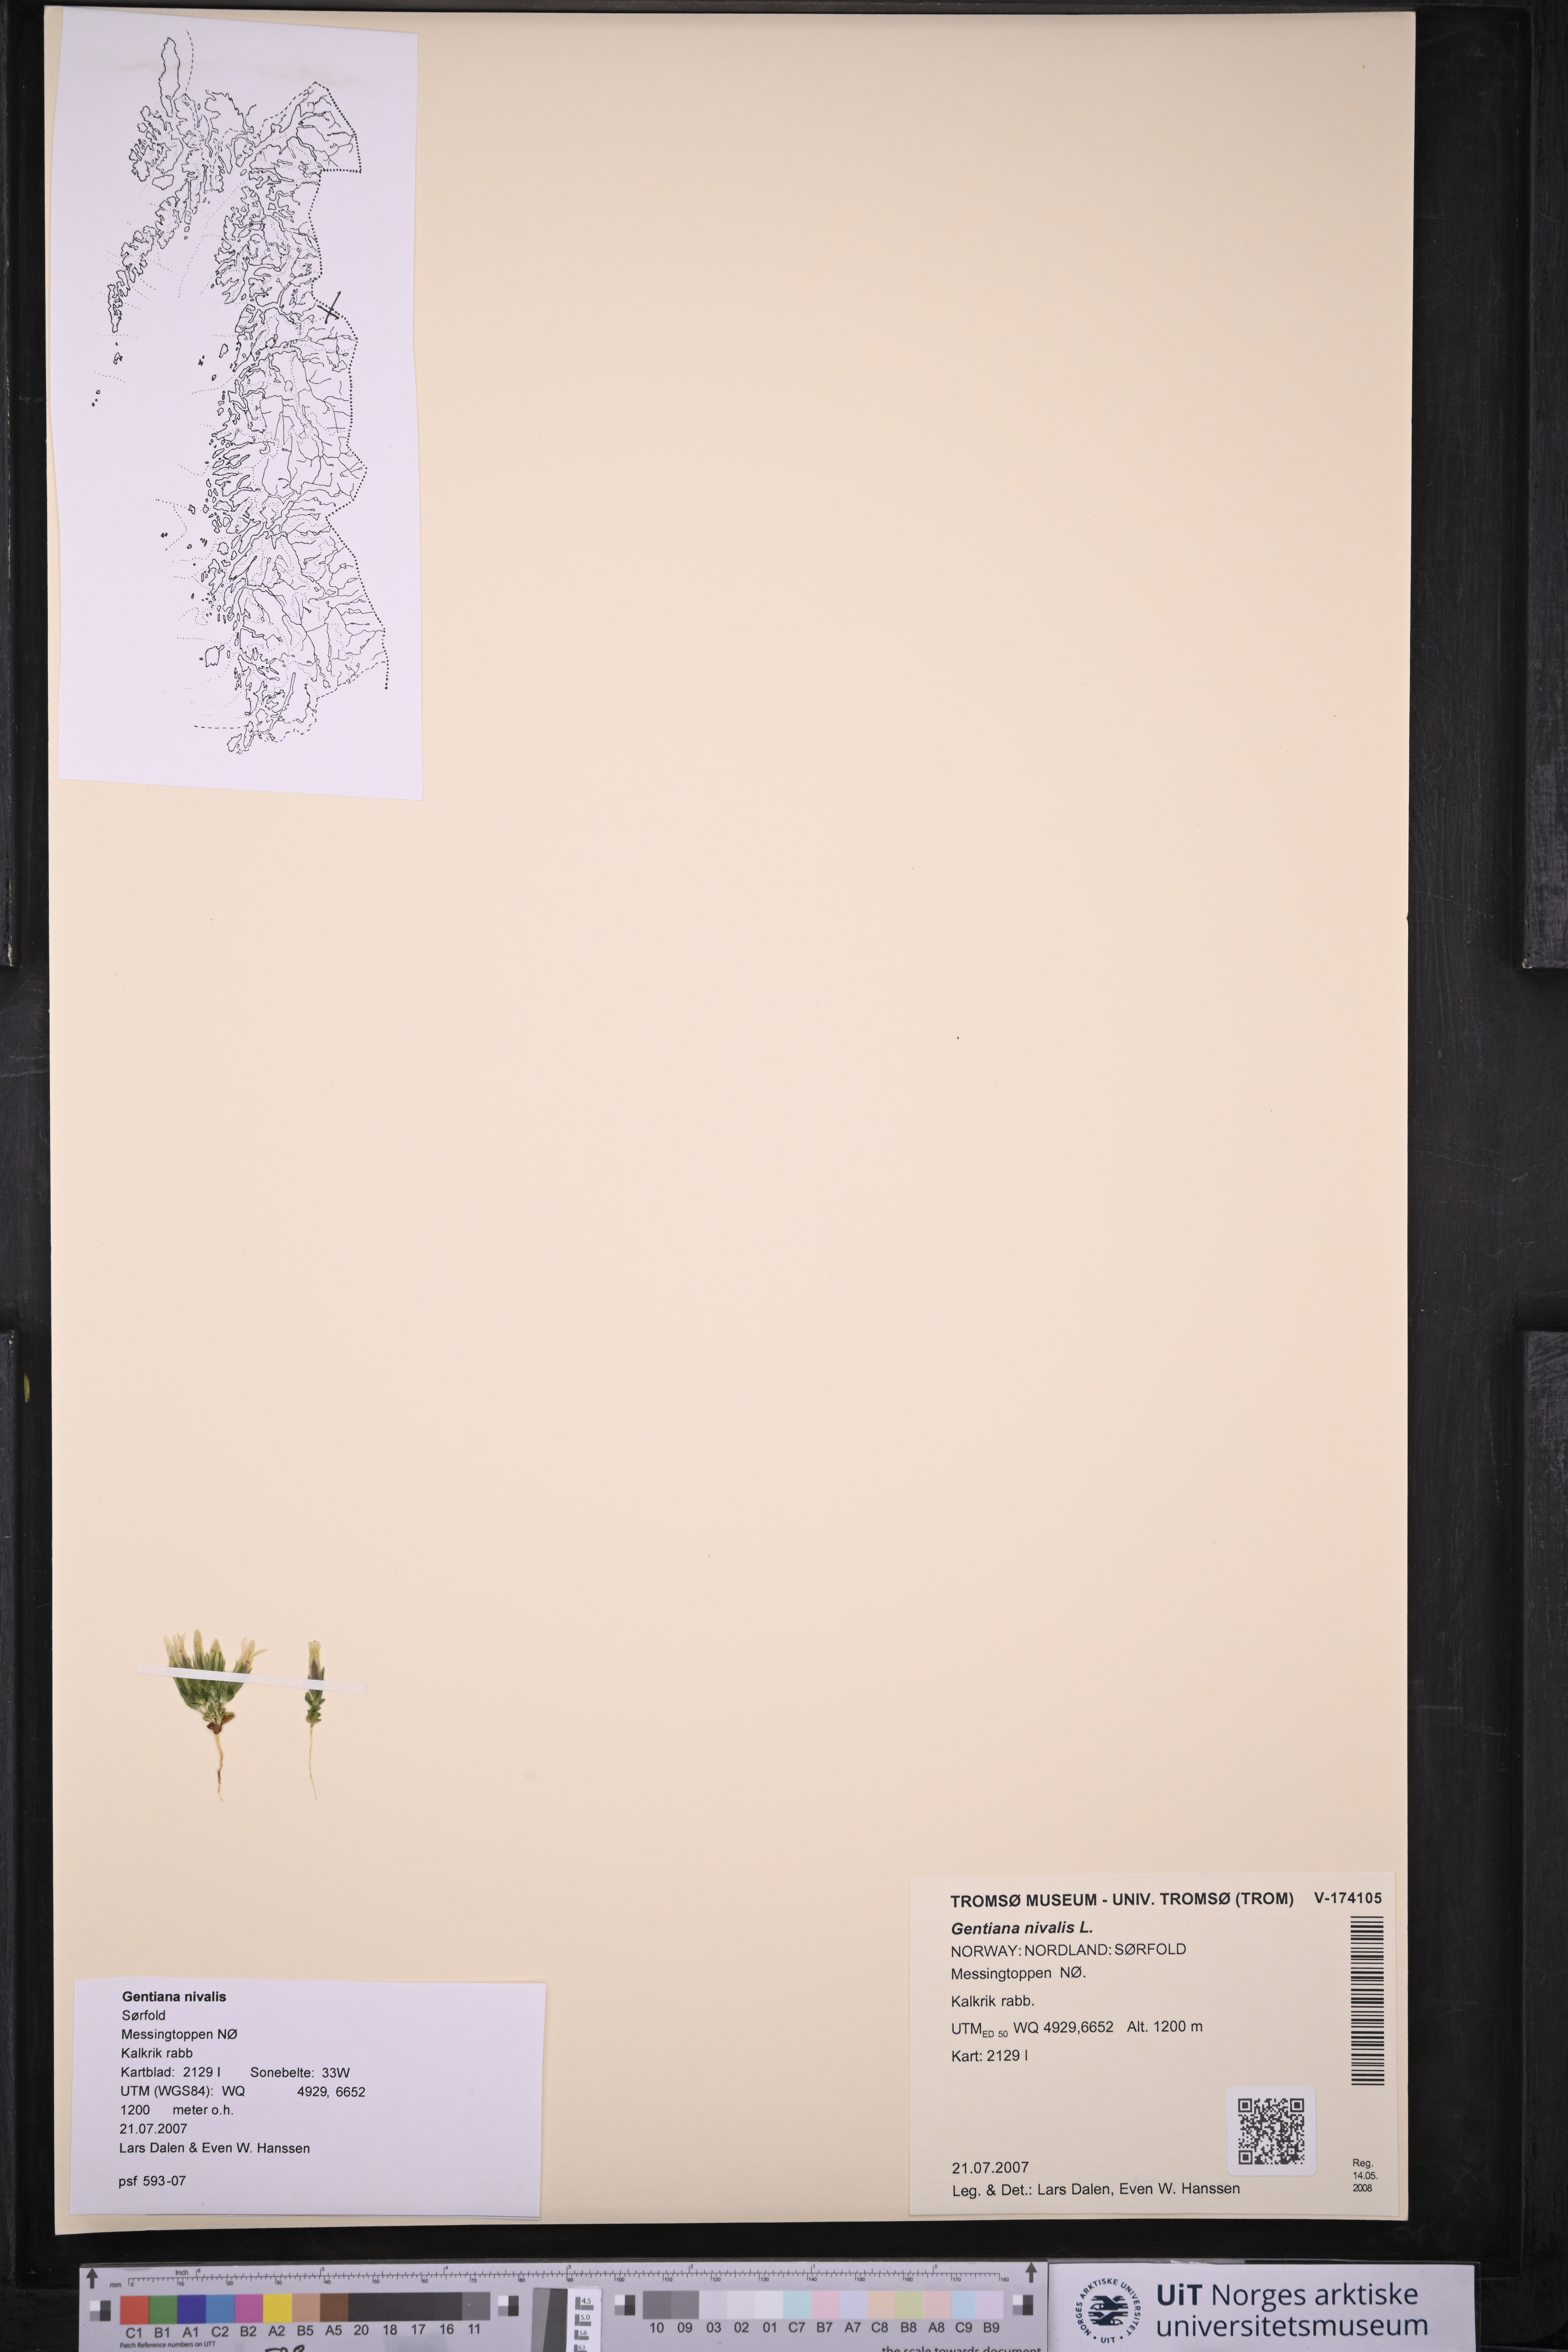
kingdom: Plantae
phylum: Tracheophyta
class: Magnoliopsida
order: Gentianales
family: Gentianaceae
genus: Gentiana
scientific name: Gentiana nivalis
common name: Alpine gentian
